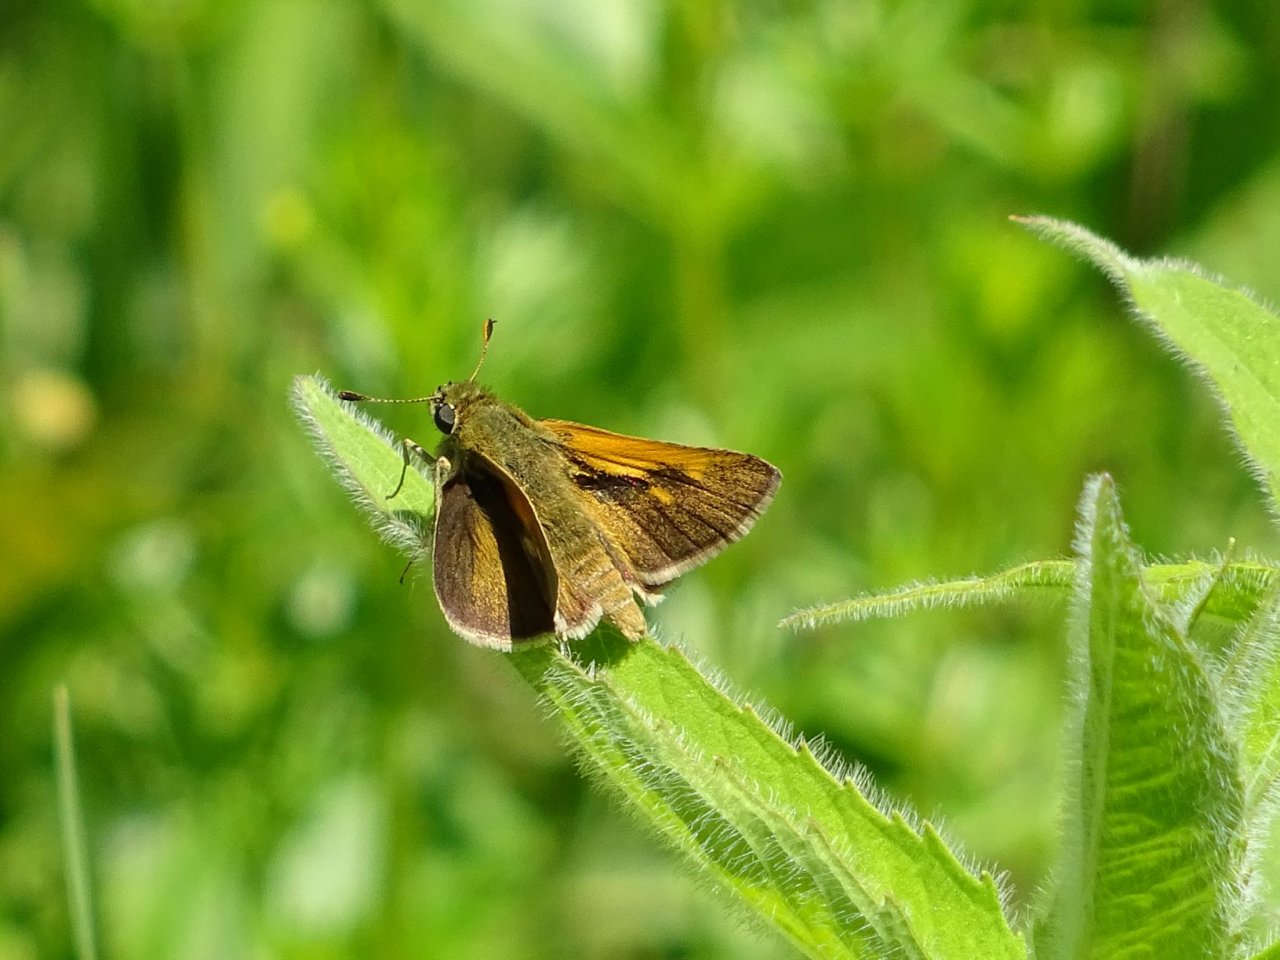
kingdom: Animalia
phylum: Arthropoda
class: Insecta
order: Lepidoptera
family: Hesperiidae
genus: Polites
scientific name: Polites themistocles
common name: Tawny-edged Skipper
